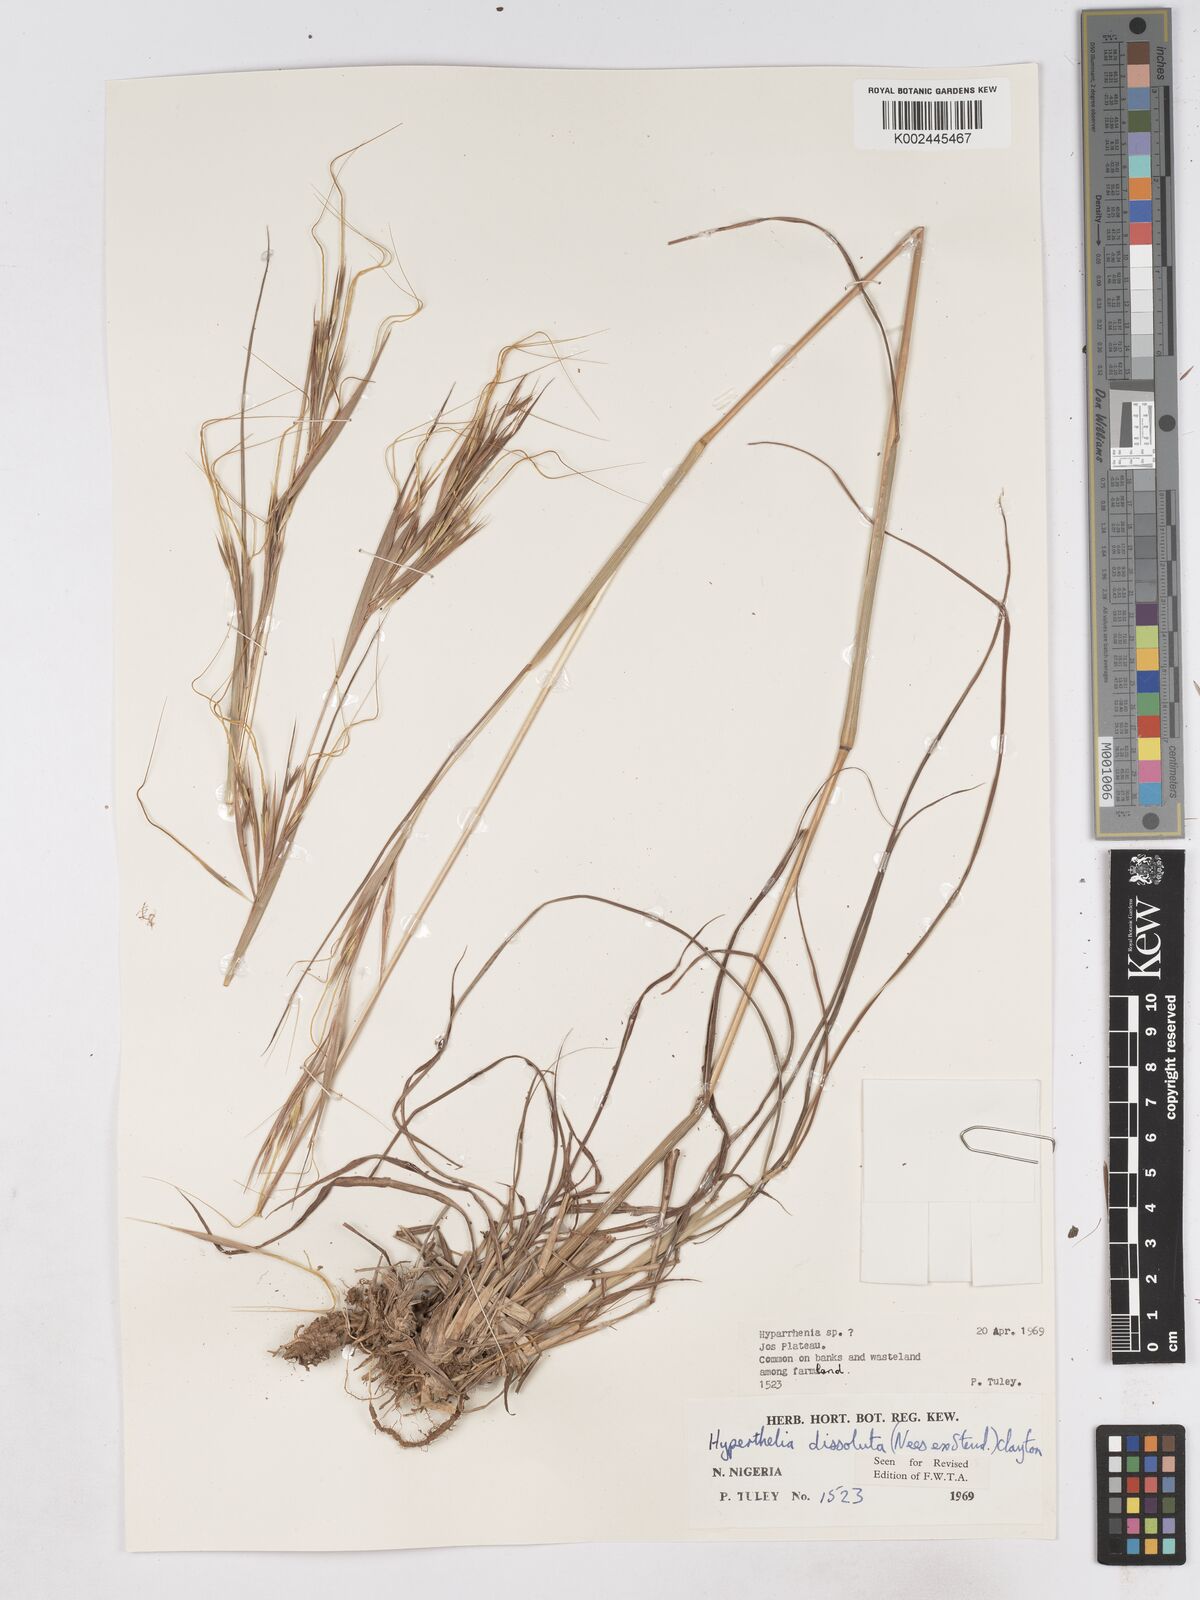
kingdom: Plantae
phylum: Tracheophyta
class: Liliopsida
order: Poales
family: Poaceae
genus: Hyperthelia
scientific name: Hyperthelia dissoluta
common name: Yellow thatching grass
